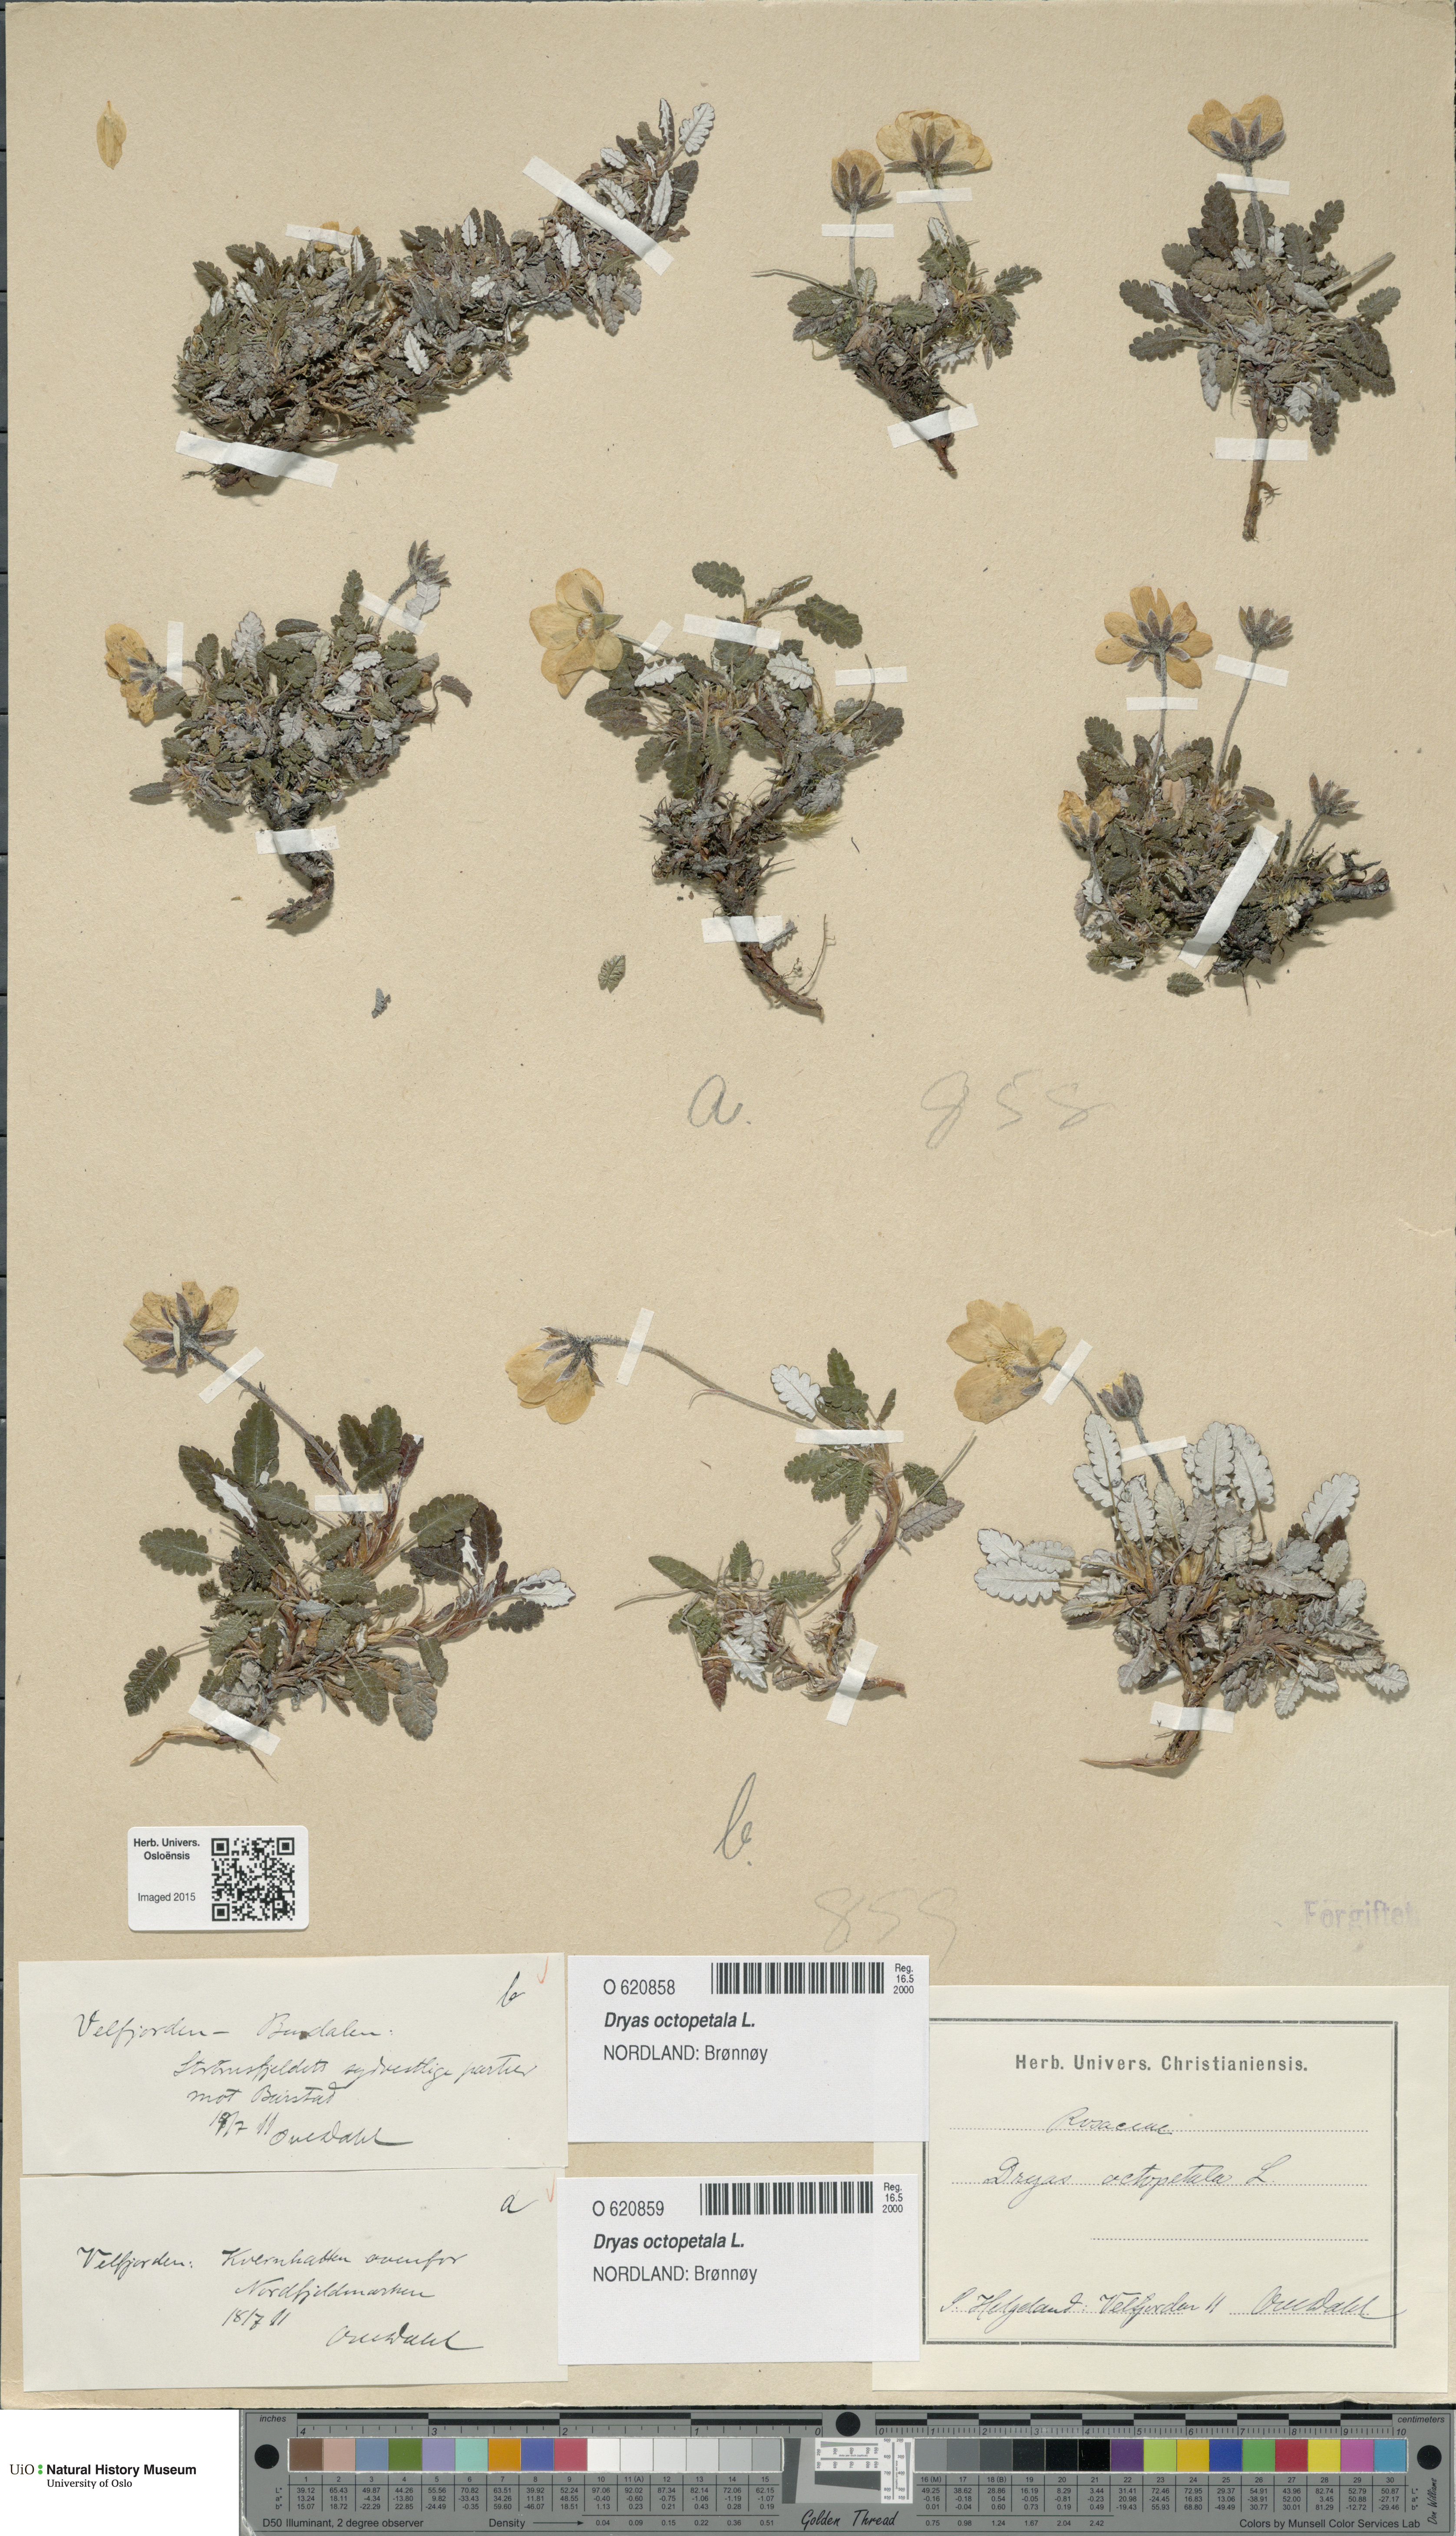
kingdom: Plantae
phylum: Tracheophyta
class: Magnoliopsida
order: Rosales
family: Rosaceae
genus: Dryas
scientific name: Dryas octopetala
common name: Eight-petal mountain-avens
